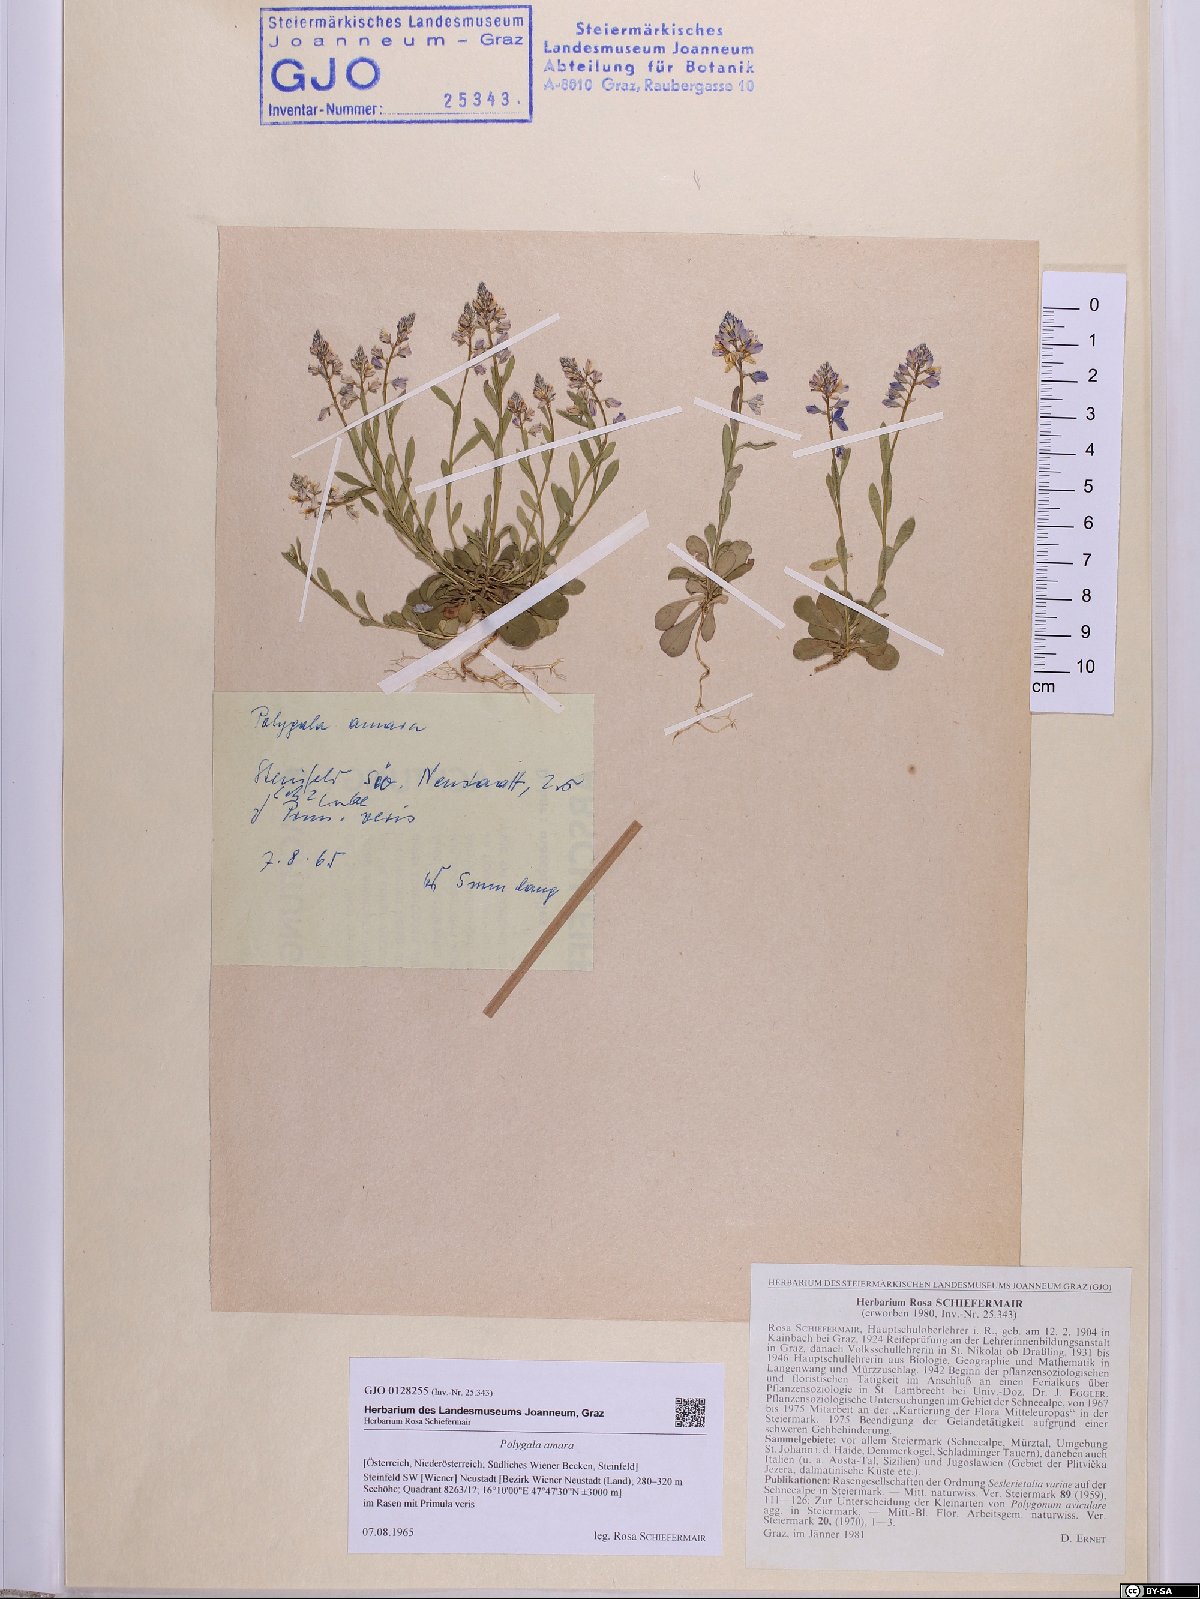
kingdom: Plantae
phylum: Tracheophyta
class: Magnoliopsida
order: Fabales
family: Polygalaceae
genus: Polygala
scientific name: Polygala amara
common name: Milkwort
